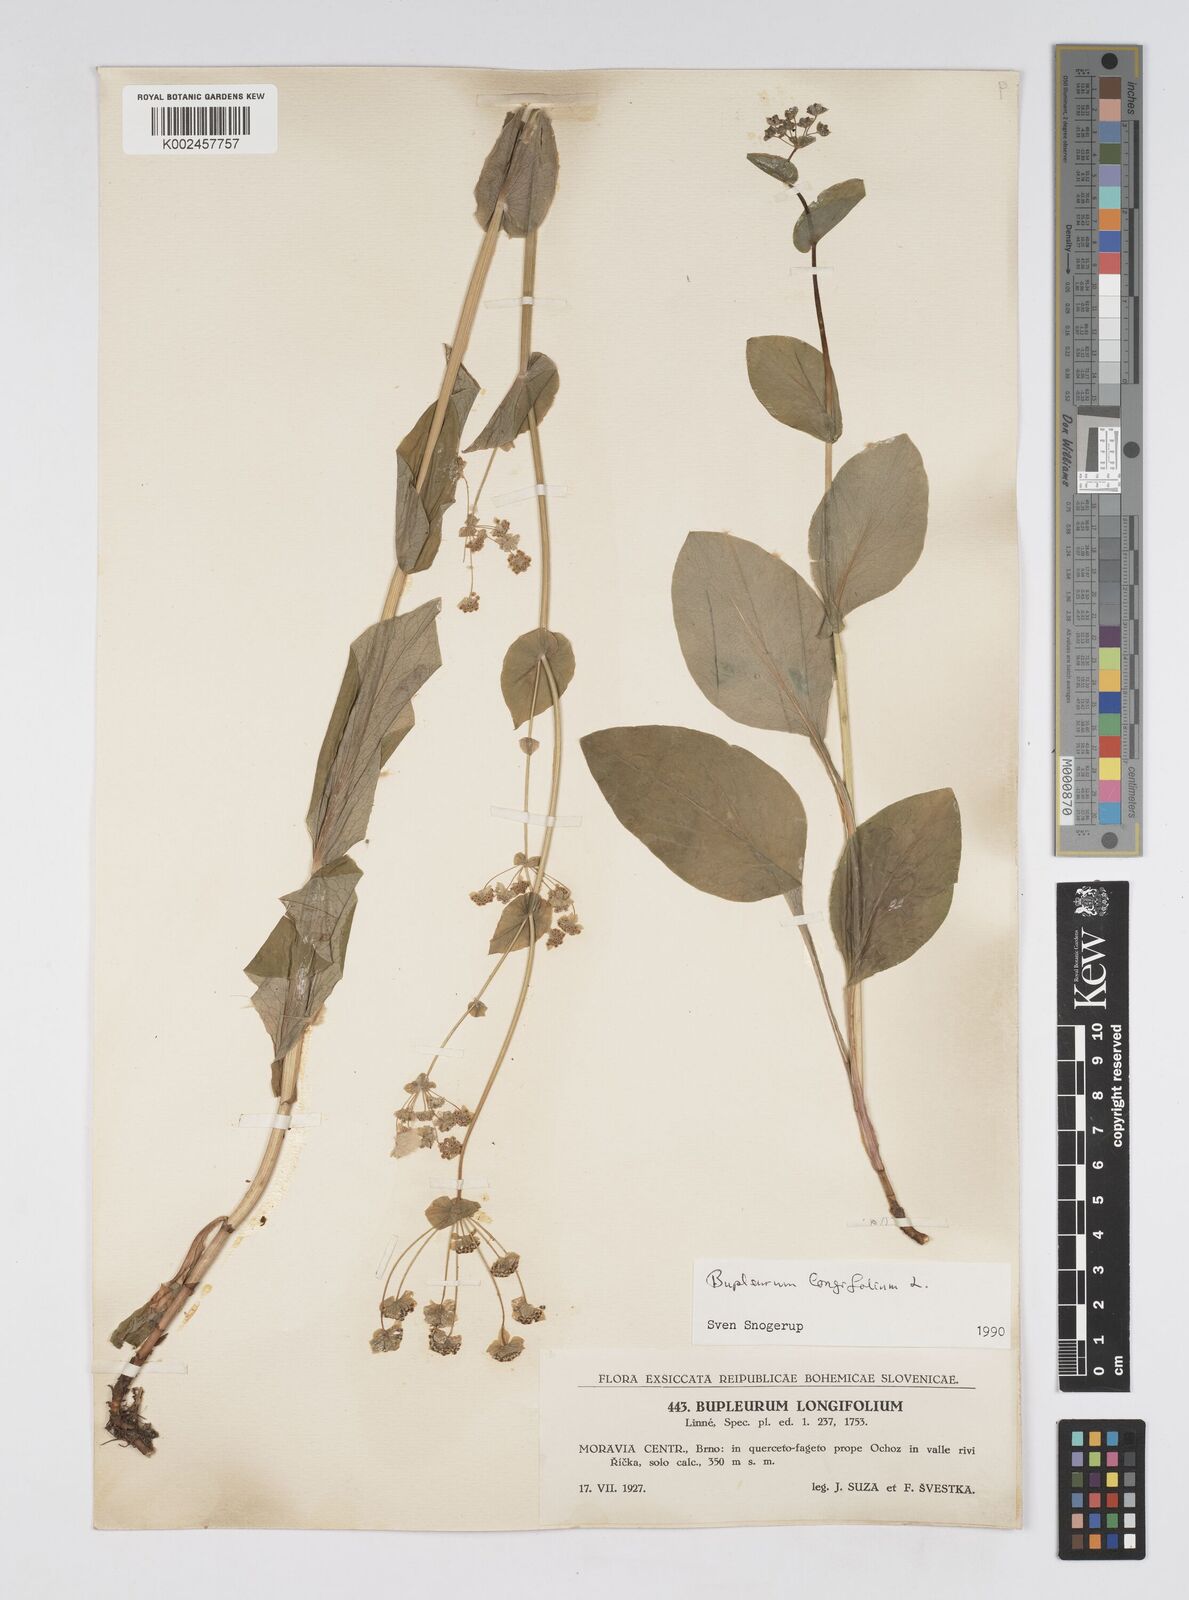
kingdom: Plantae
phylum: Tracheophyta
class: Magnoliopsida
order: Apiales
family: Apiaceae
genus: Bupleurum
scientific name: Bupleurum longifolium
